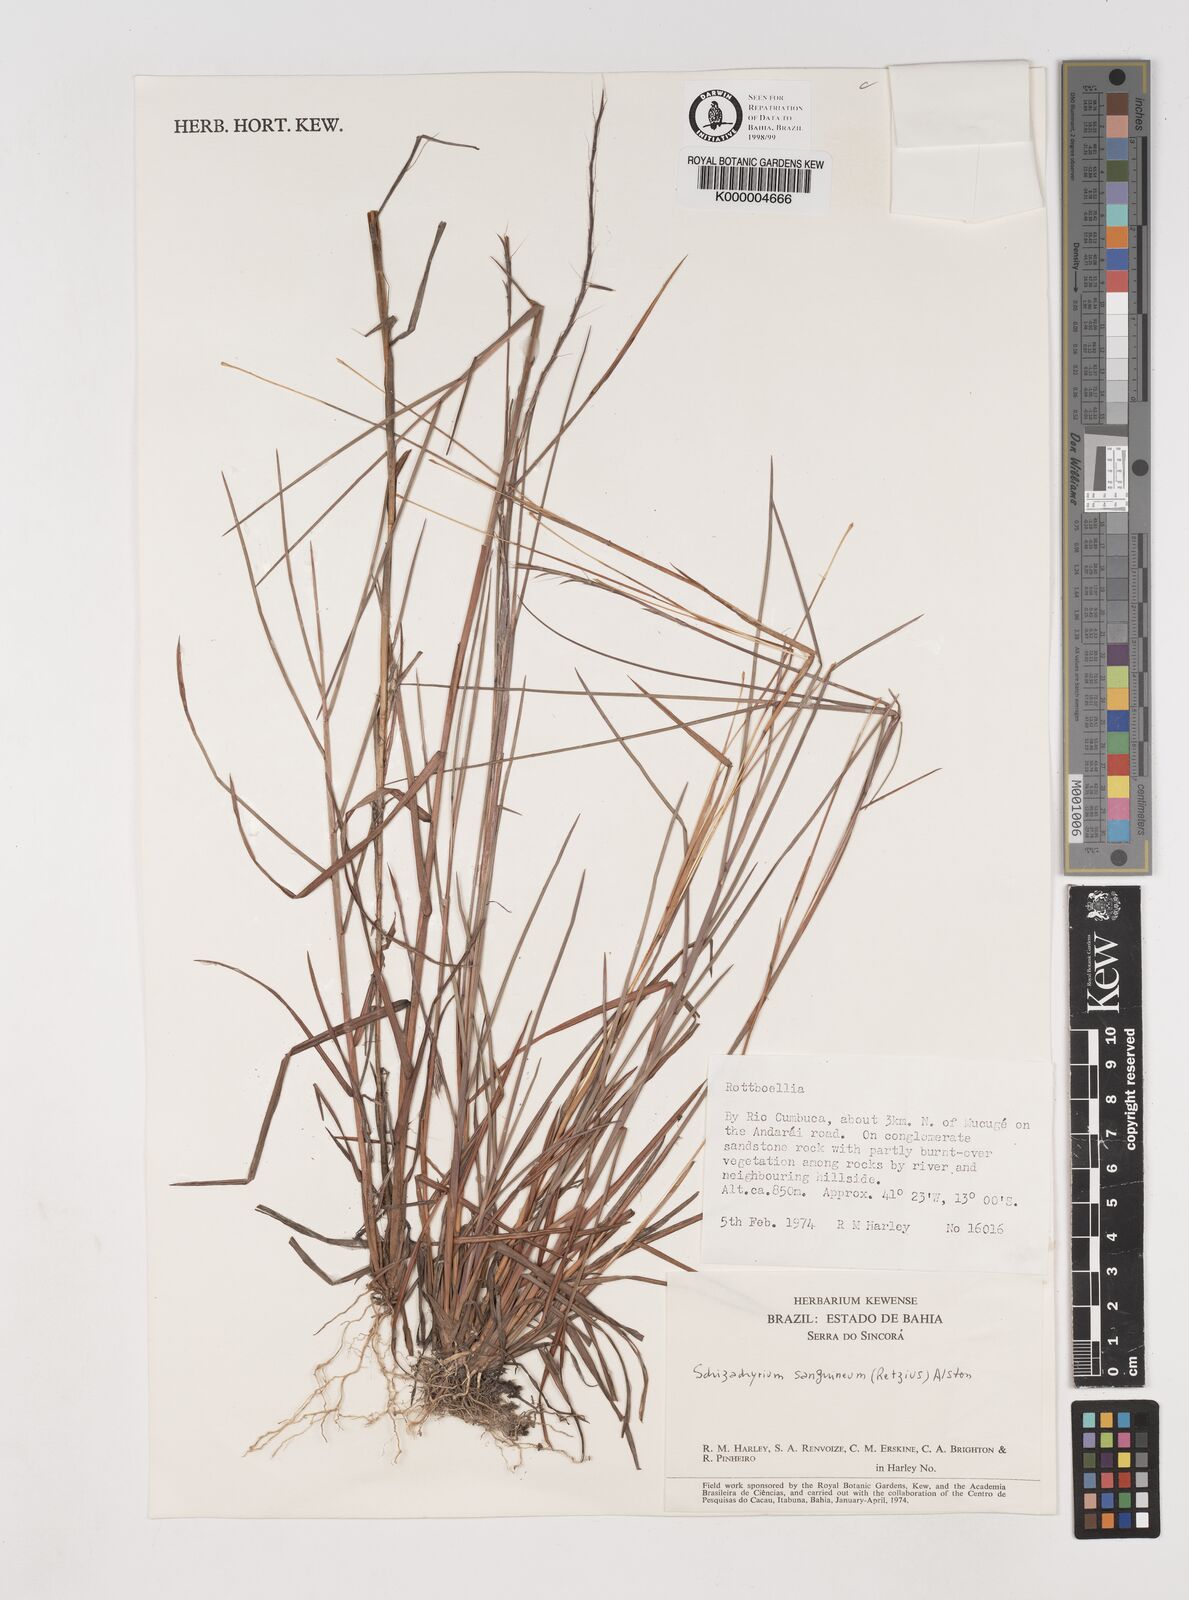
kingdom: Plantae
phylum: Tracheophyta
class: Liliopsida
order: Poales
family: Poaceae
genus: Schizachyrium
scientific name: Schizachyrium sanguineum
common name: Crimson bluestem
